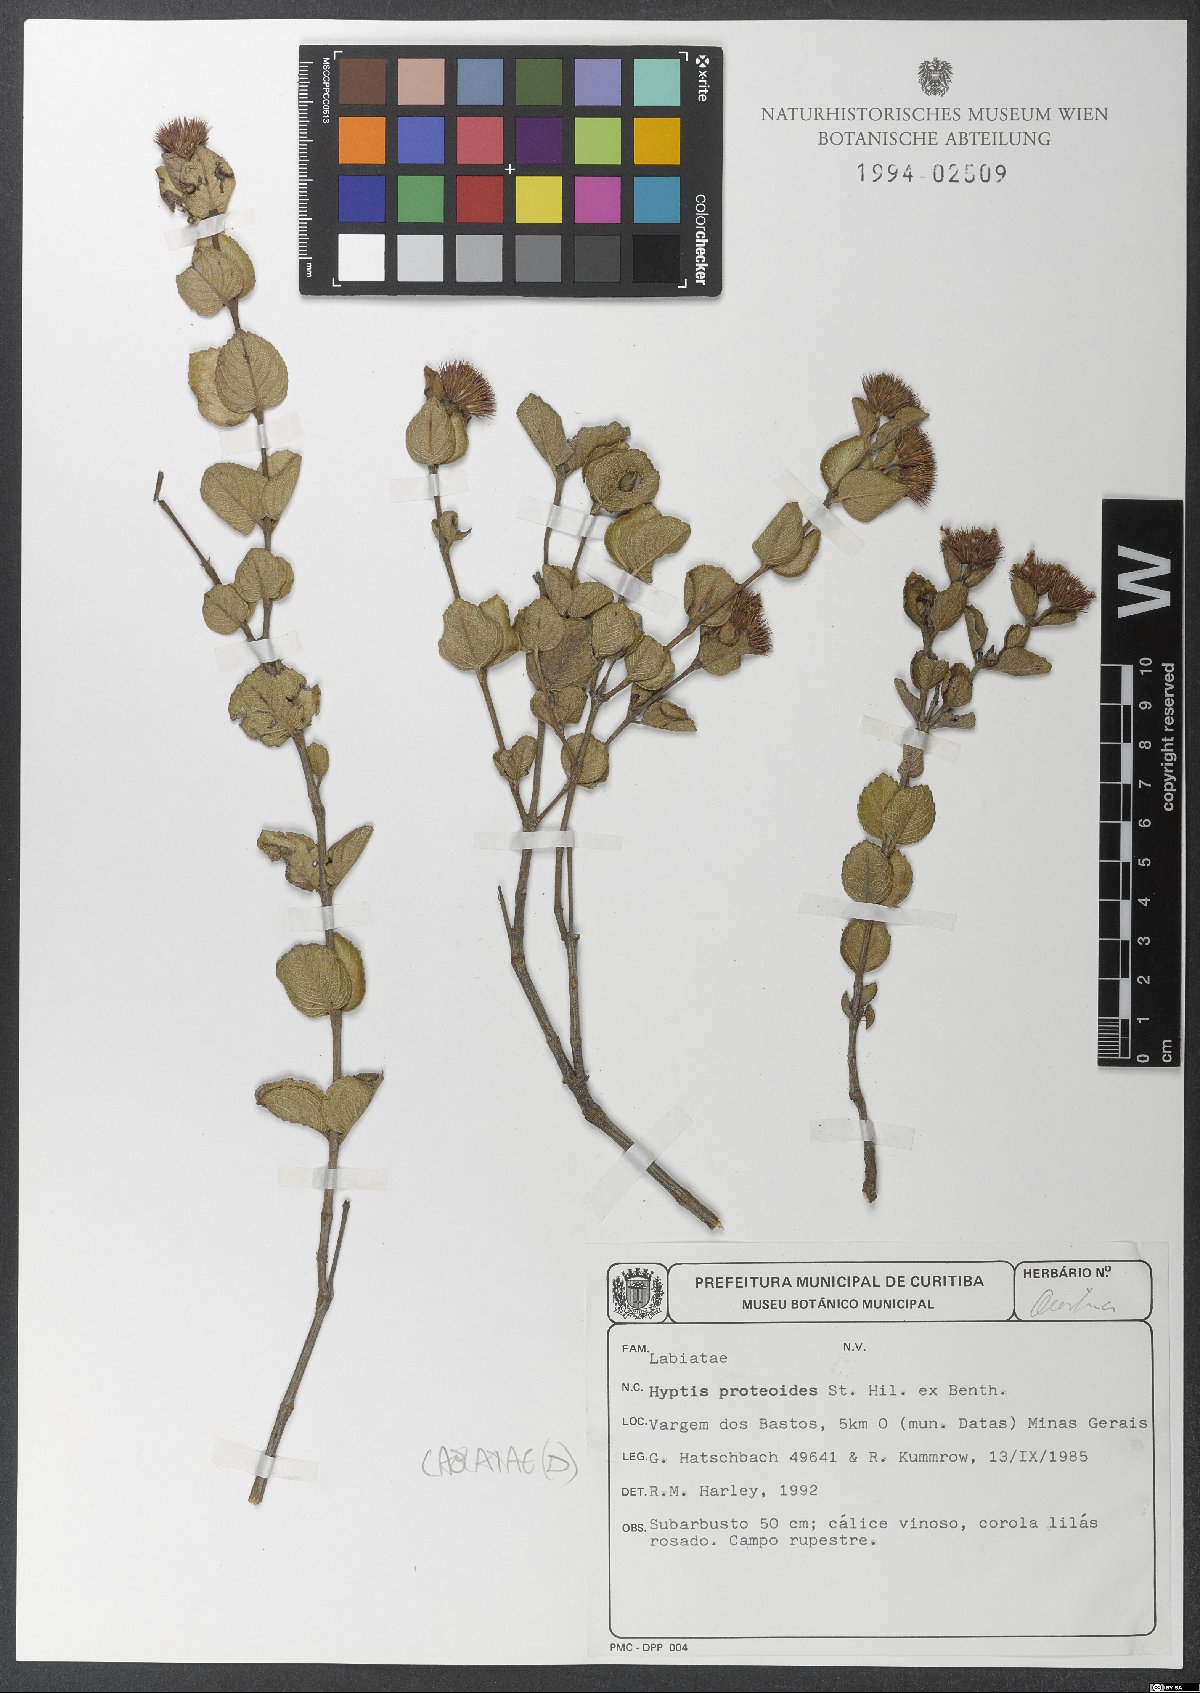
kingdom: Plantae
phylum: Tracheophyta
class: Magnoliopsida
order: Lamiales
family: Lamiaceae
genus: Hyptis
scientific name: Hyptis proteoides
